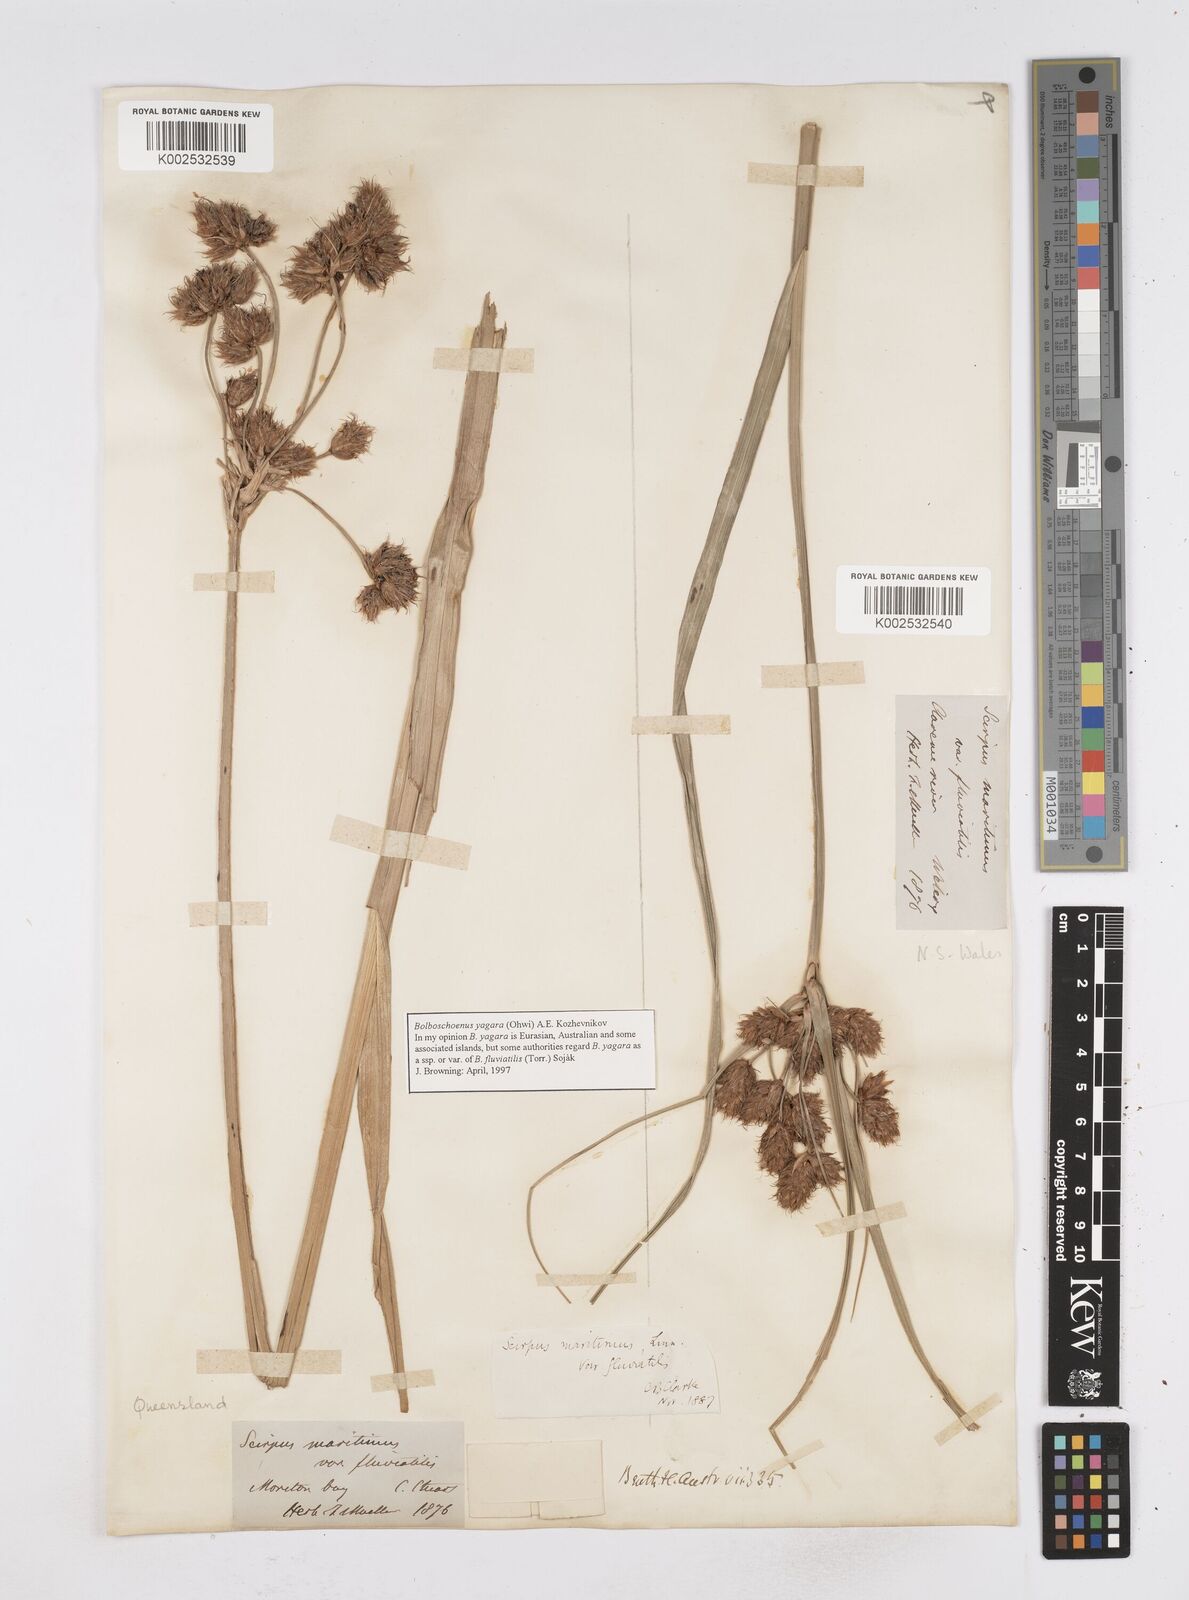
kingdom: Plantae
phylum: Tracheophyta
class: Liliopsida
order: Poales
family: Cyperaceae
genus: Bolboschoenus
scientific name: Bolboschoenus yagara
